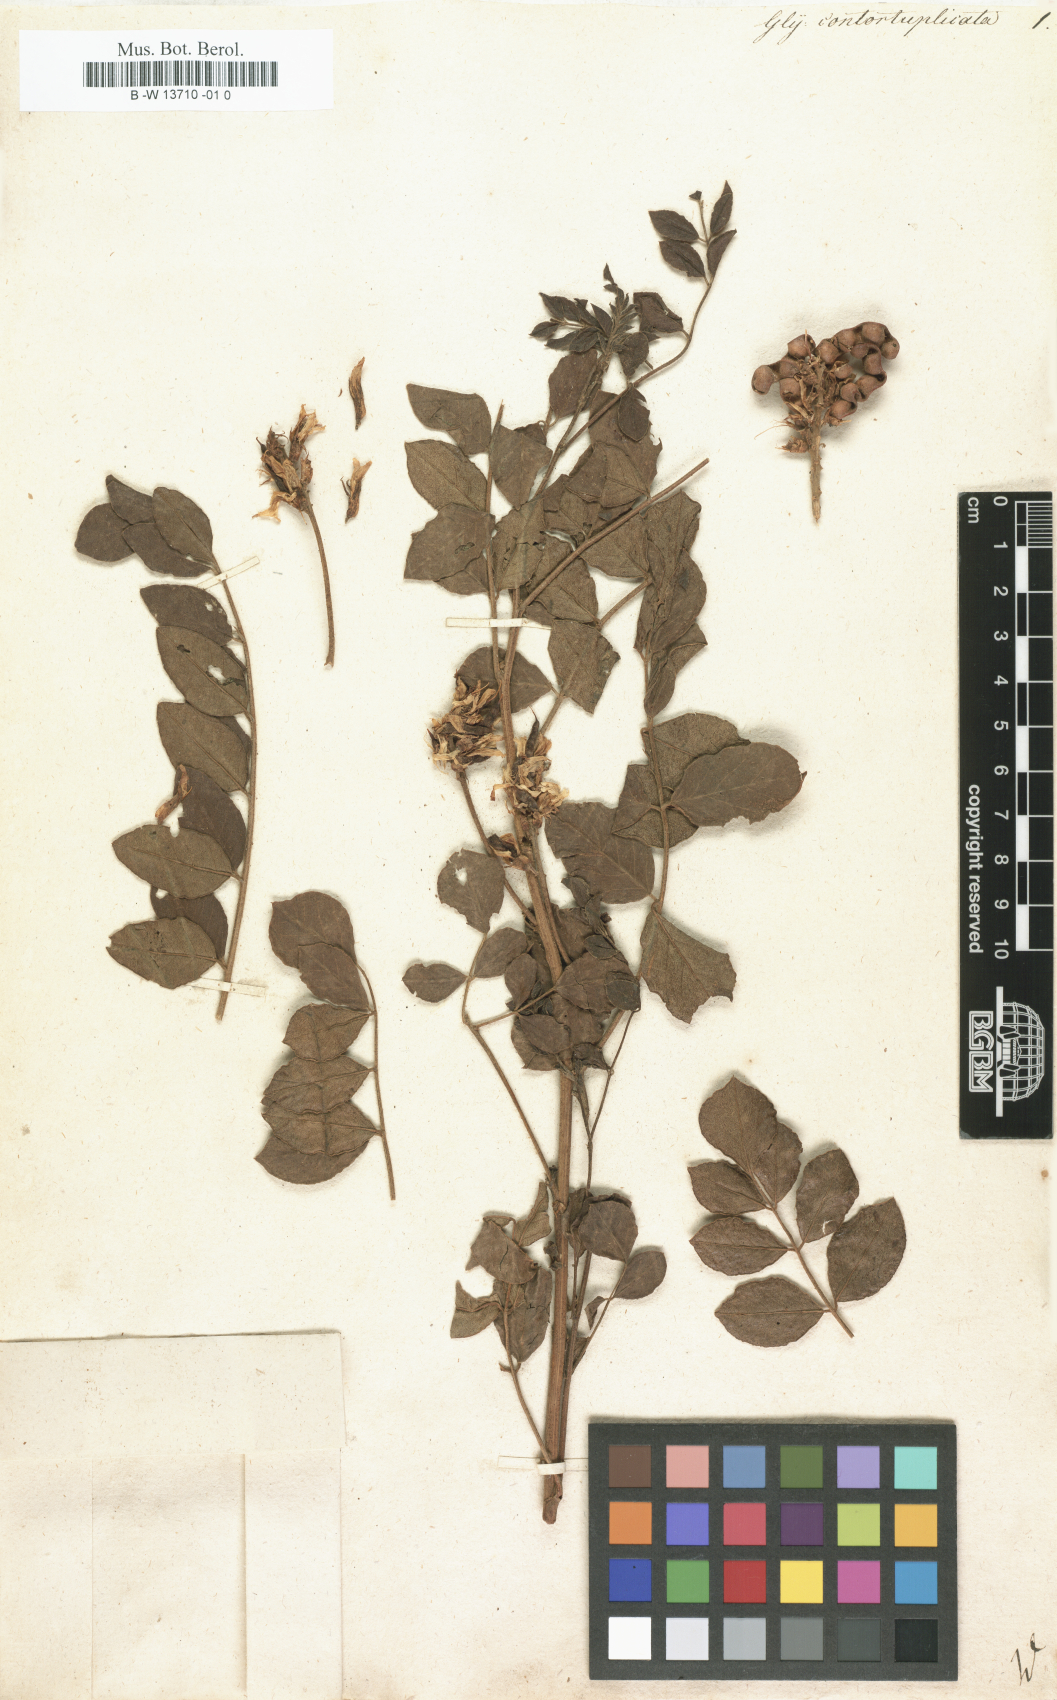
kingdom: Plantae
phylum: Tracheophyta
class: Magnoliopsida
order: Fabales
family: Fabaceae
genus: Glycyrrhiza
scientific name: Glycyrrhiza
